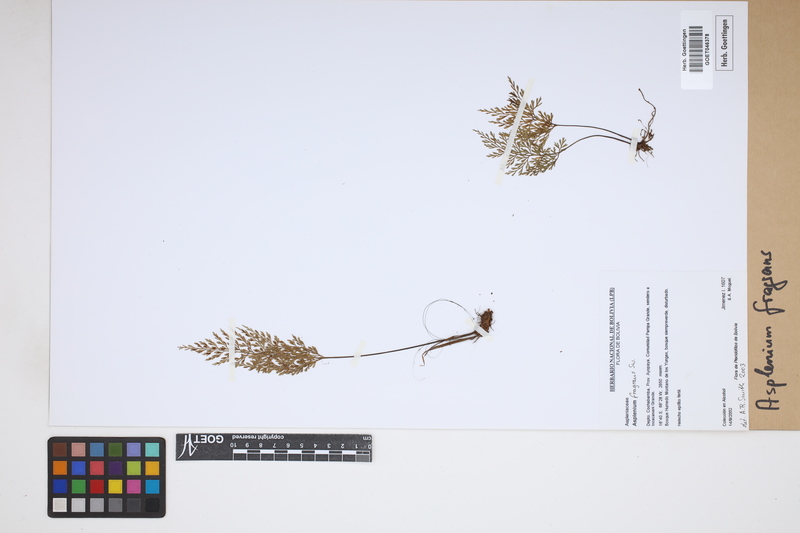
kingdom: Plantae
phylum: Tracheophyta
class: Polypodiopsida
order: Polypodiales
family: Aspleniaceae
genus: Asplenium
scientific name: Asplenium fragrans
